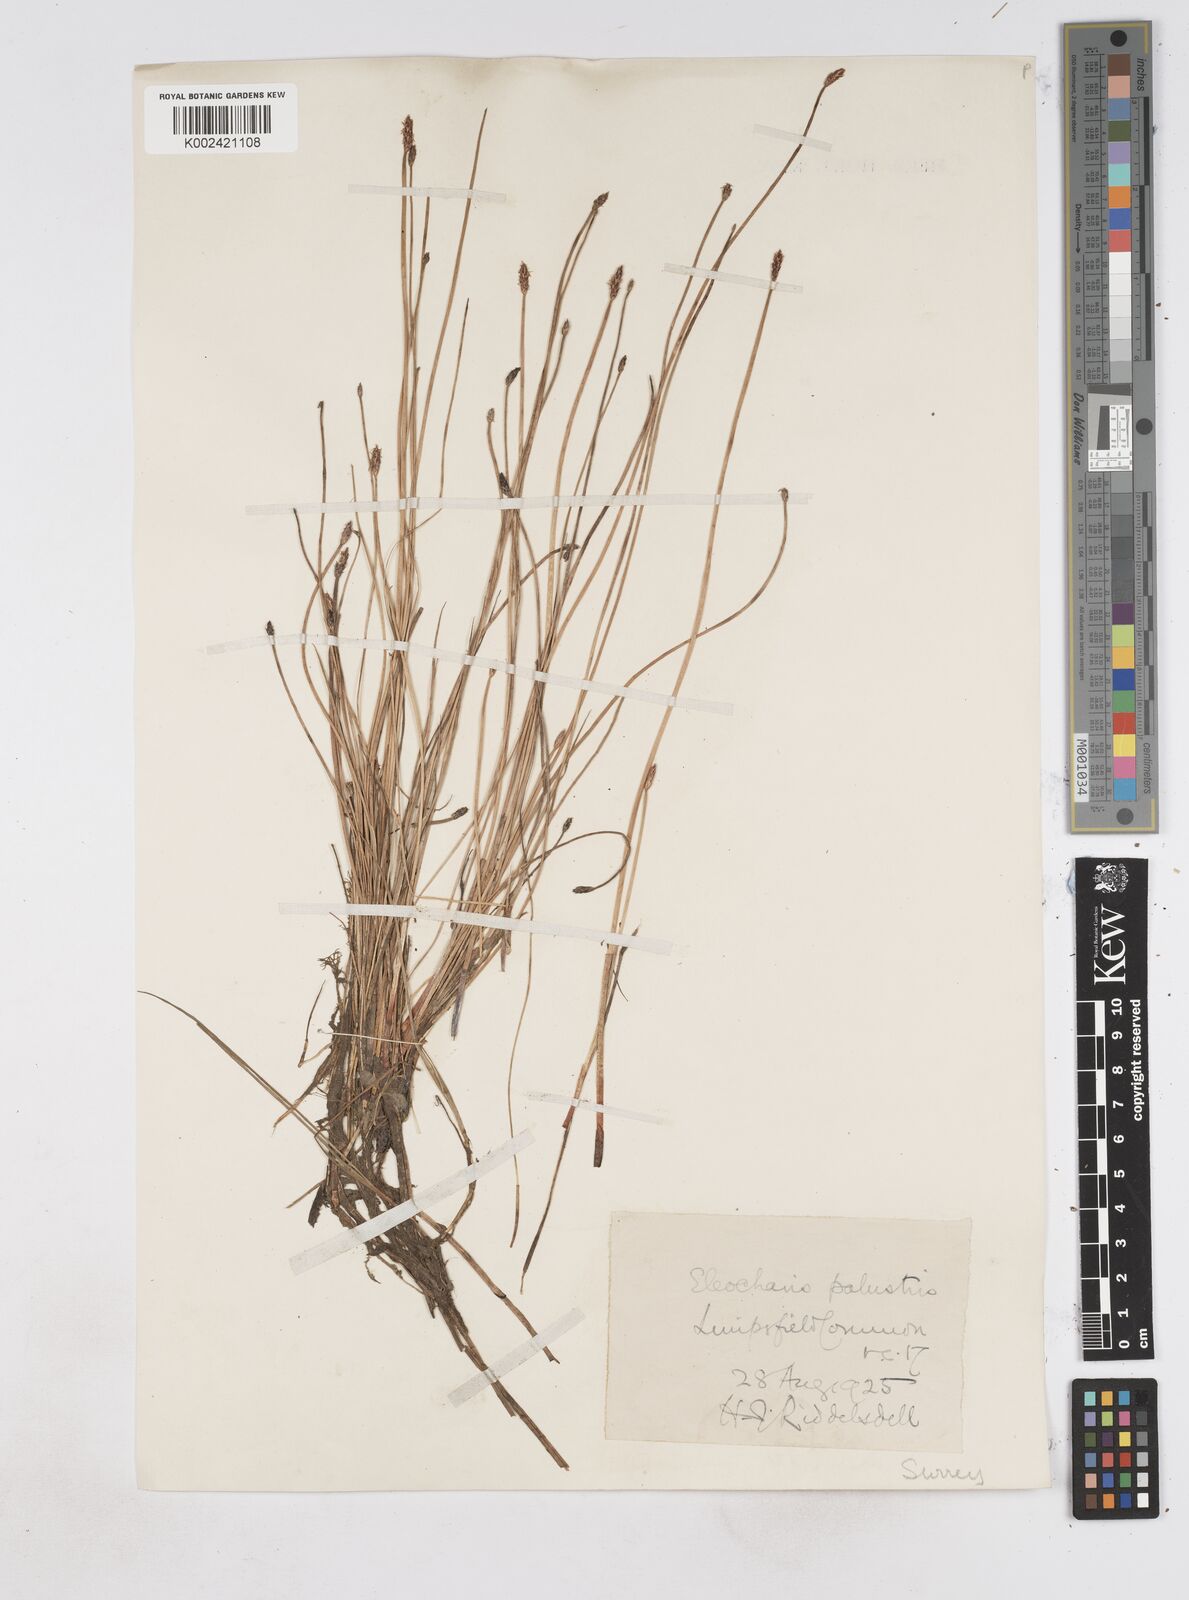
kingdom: Plantae
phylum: Tracheophyta
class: Liliopsida
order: Poales
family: Cyperaceae
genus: Eleocharis
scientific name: Eleocharis palustris
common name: Common spike-rush
